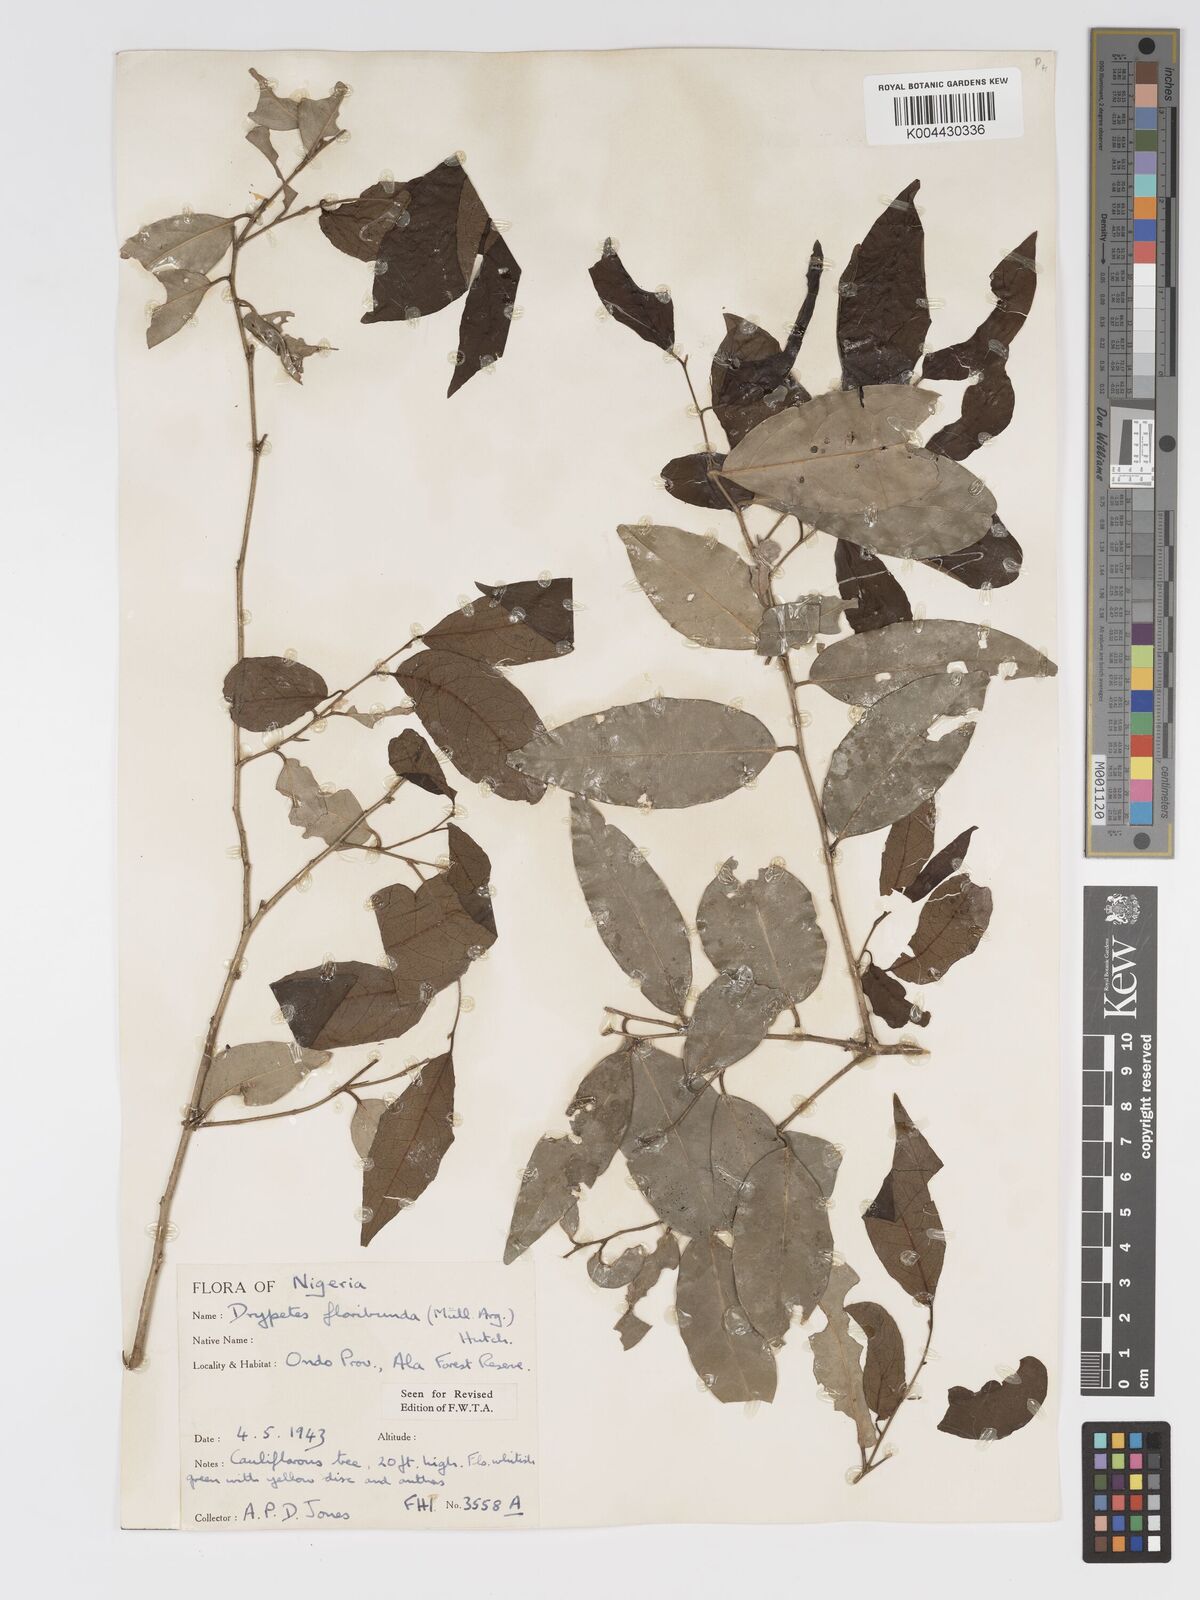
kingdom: Plantae
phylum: Tracheophyta
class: Magnoliopsida
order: Malpighiales
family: Putranjivaceae
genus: Drypetes
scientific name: Drypetes floribunda
